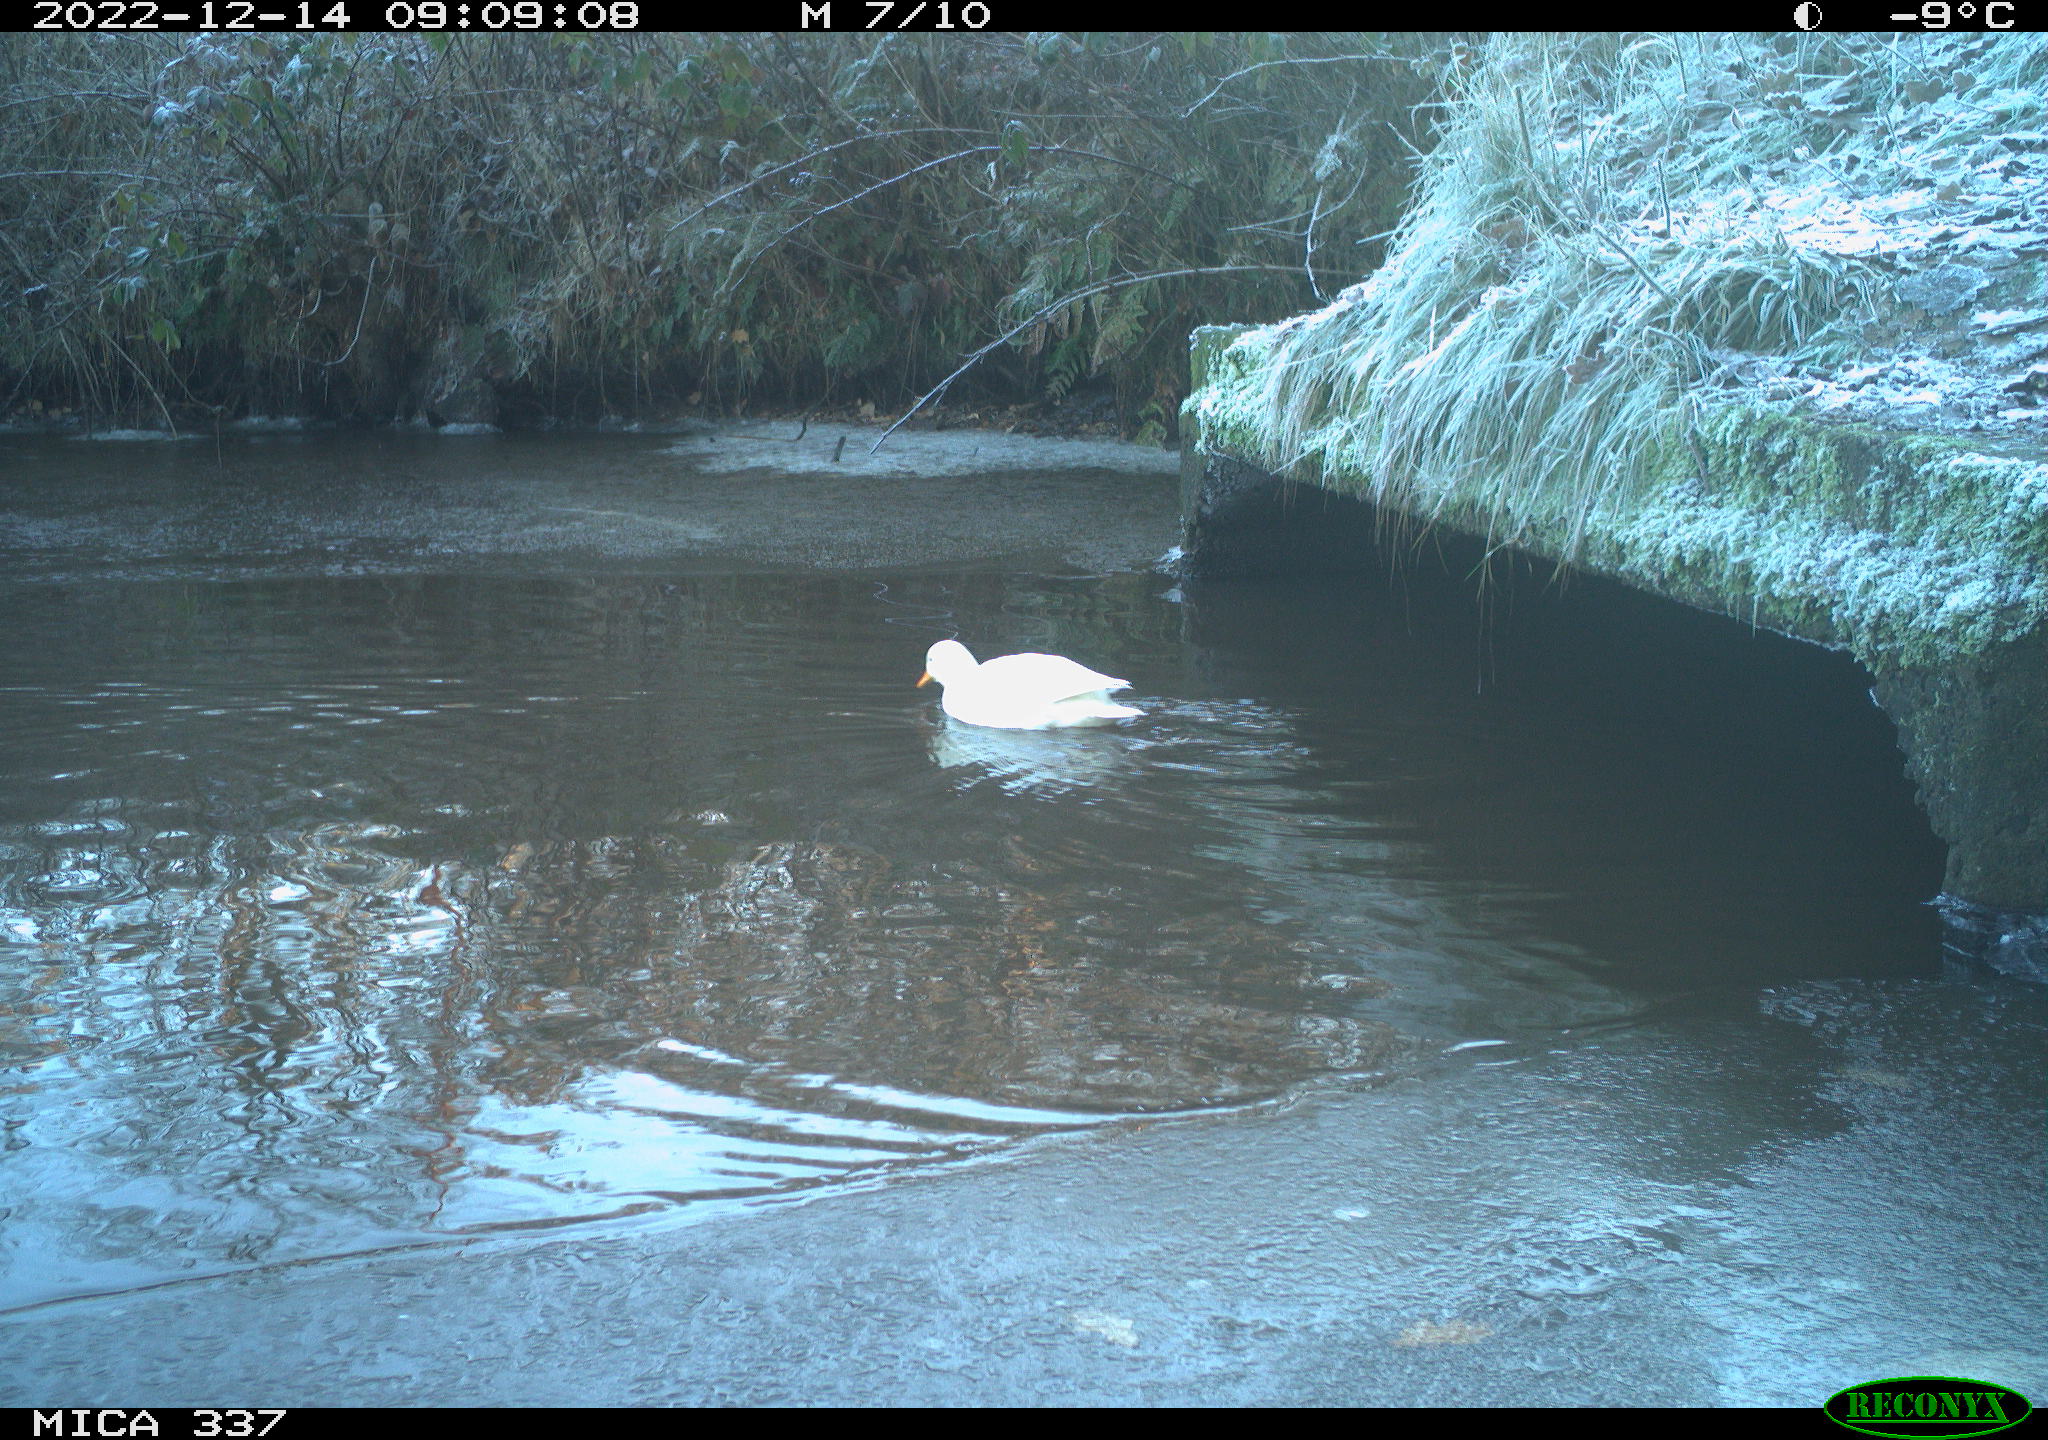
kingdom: Animalia
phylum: Chordata
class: Aves
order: Anseriformes
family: Anatidae
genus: Anas
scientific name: Anas
